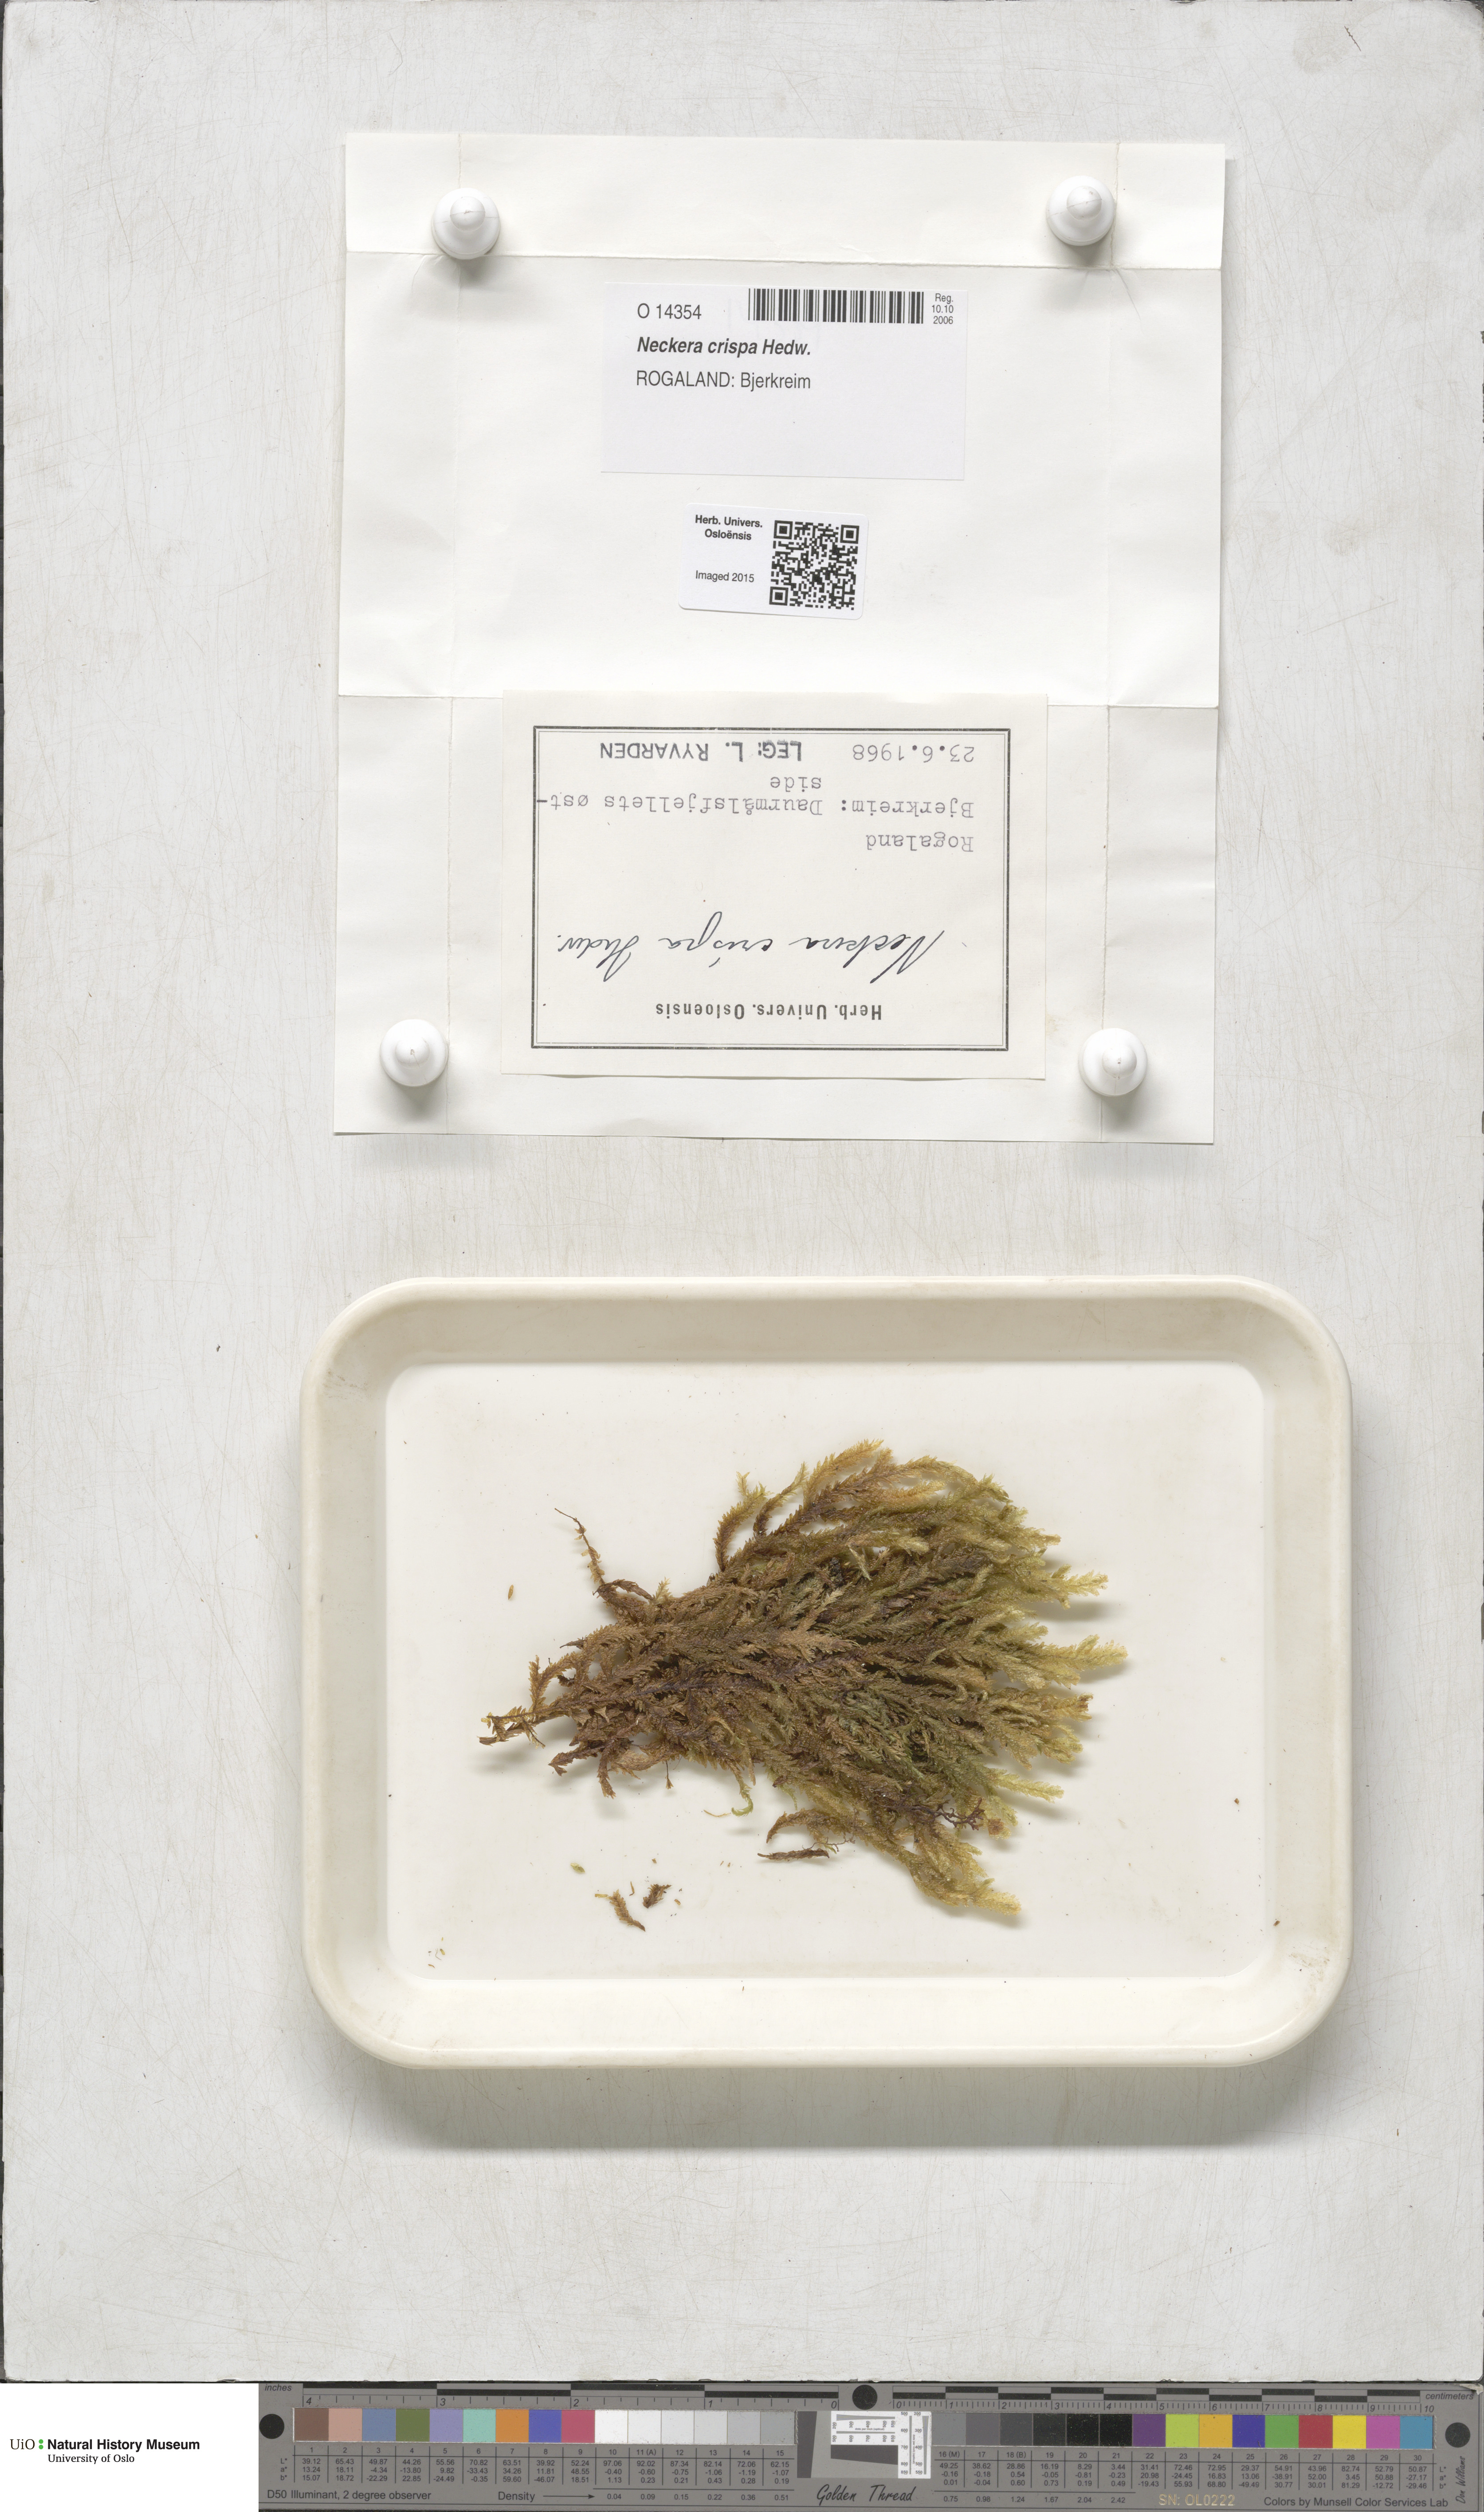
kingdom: Plantae
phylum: Bryophyta
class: Bryopsida
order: Hypnales
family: Neckeraceae
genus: Exsertotheca
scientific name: Exsertotheca crispa
